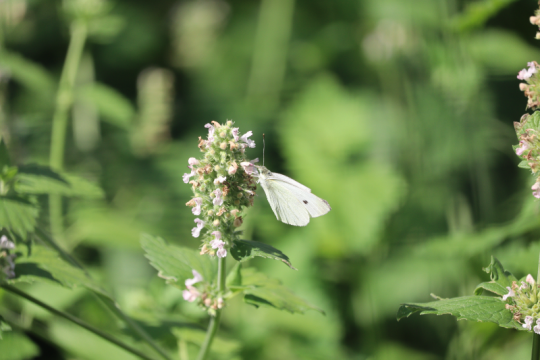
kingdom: Animalia
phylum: Arthropoda
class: Insecta
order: Lepidoptera
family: Pieridae
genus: Pieris
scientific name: Pieris rapae
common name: Cabbage White
